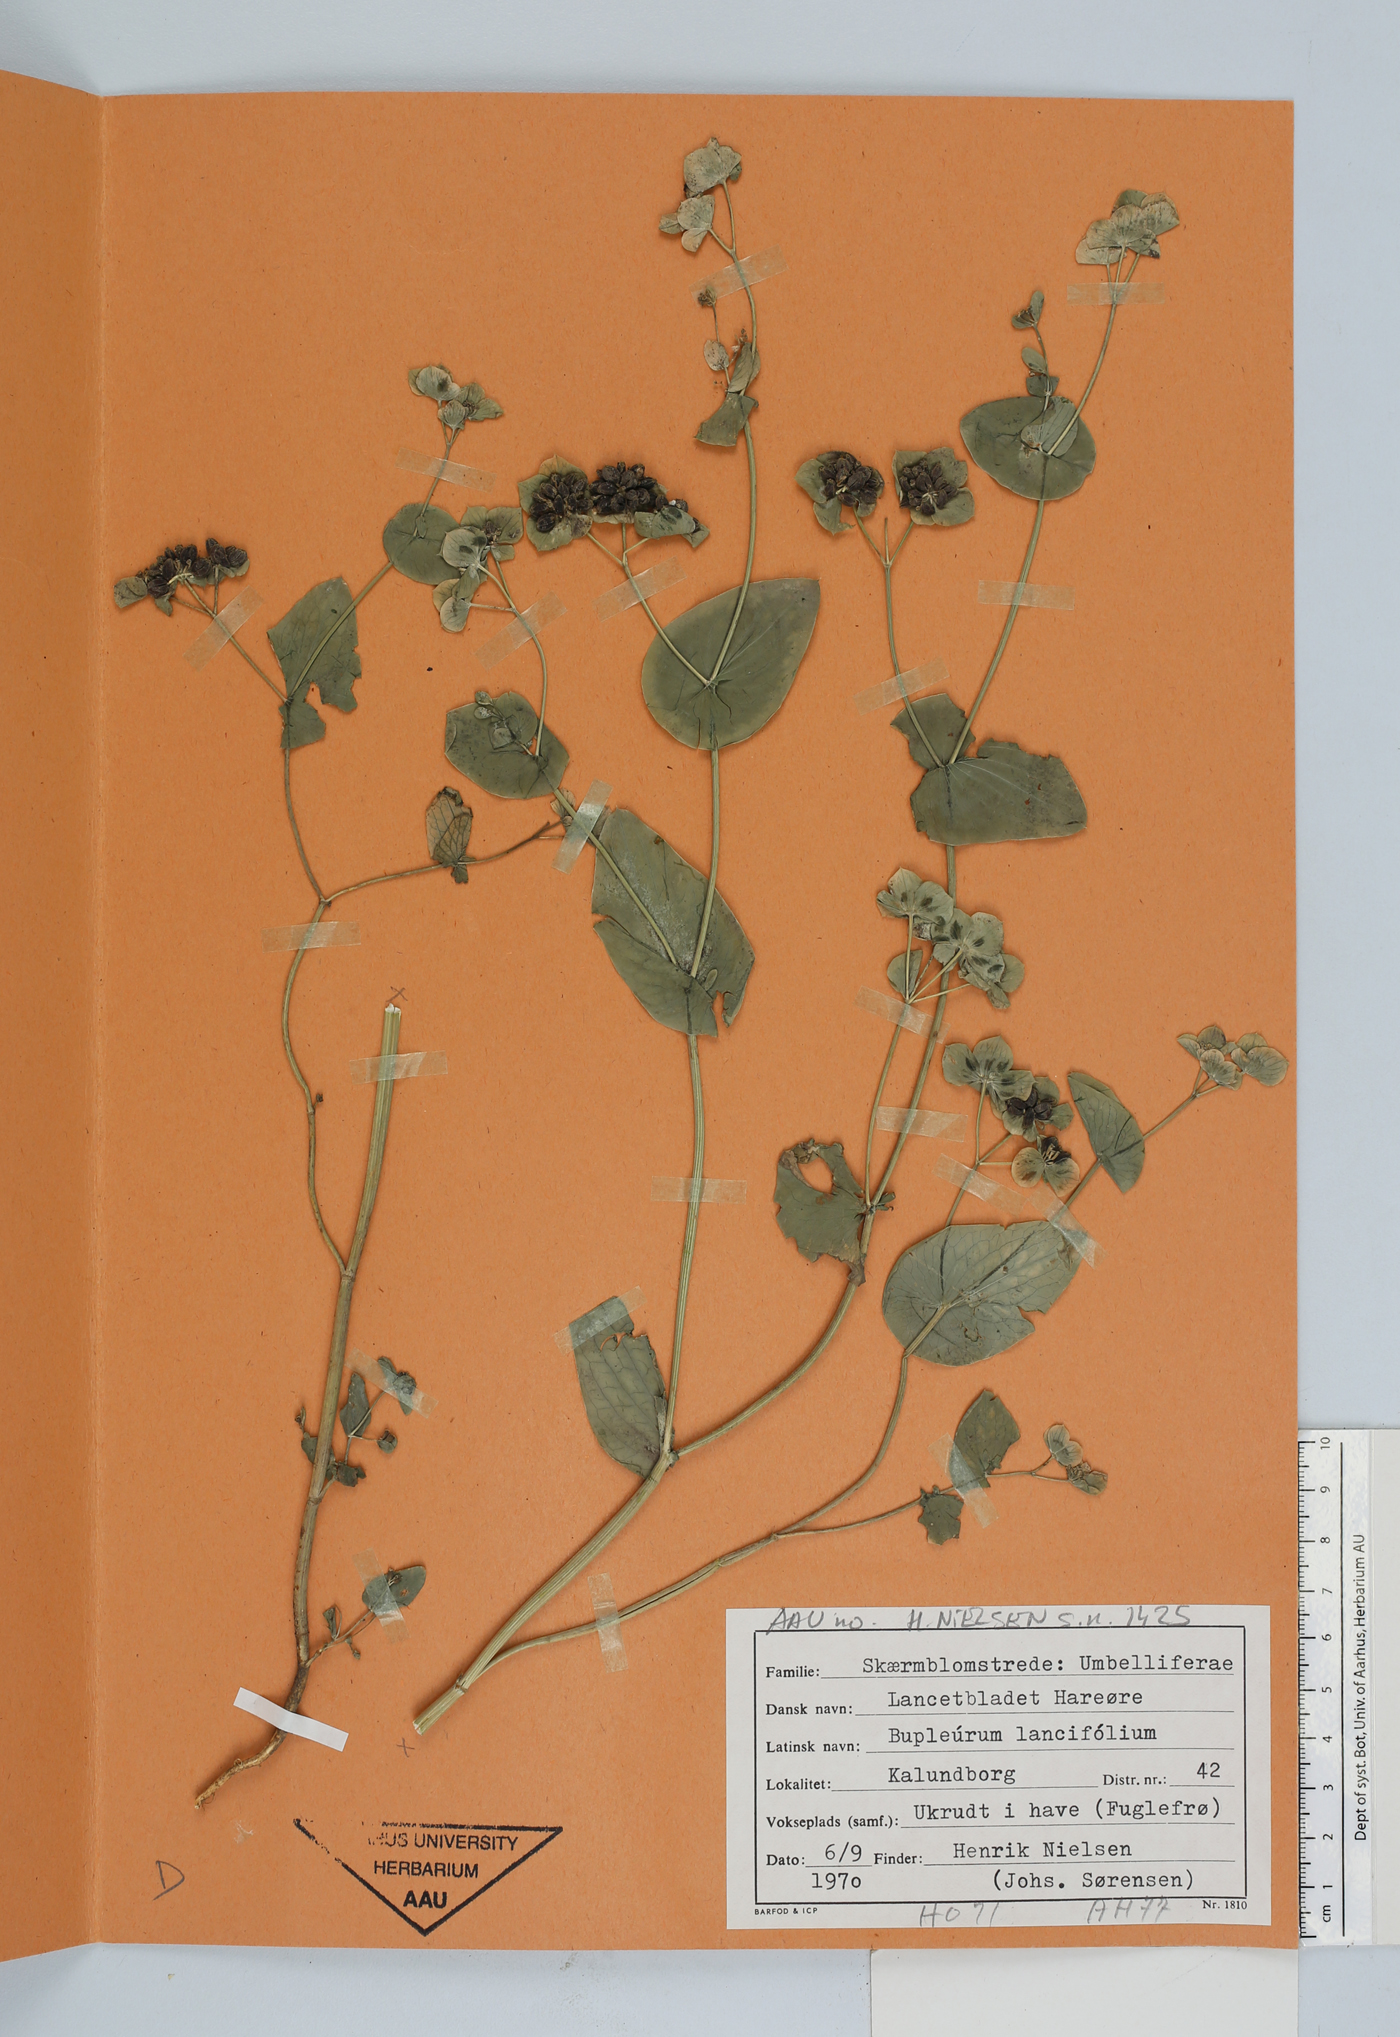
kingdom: Plantae
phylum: Tracheophyta
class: Magnoliopsida
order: Apiales
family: Apiaceae
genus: Bupleurum
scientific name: Bupleurum lancifolium
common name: False thorow-wax
